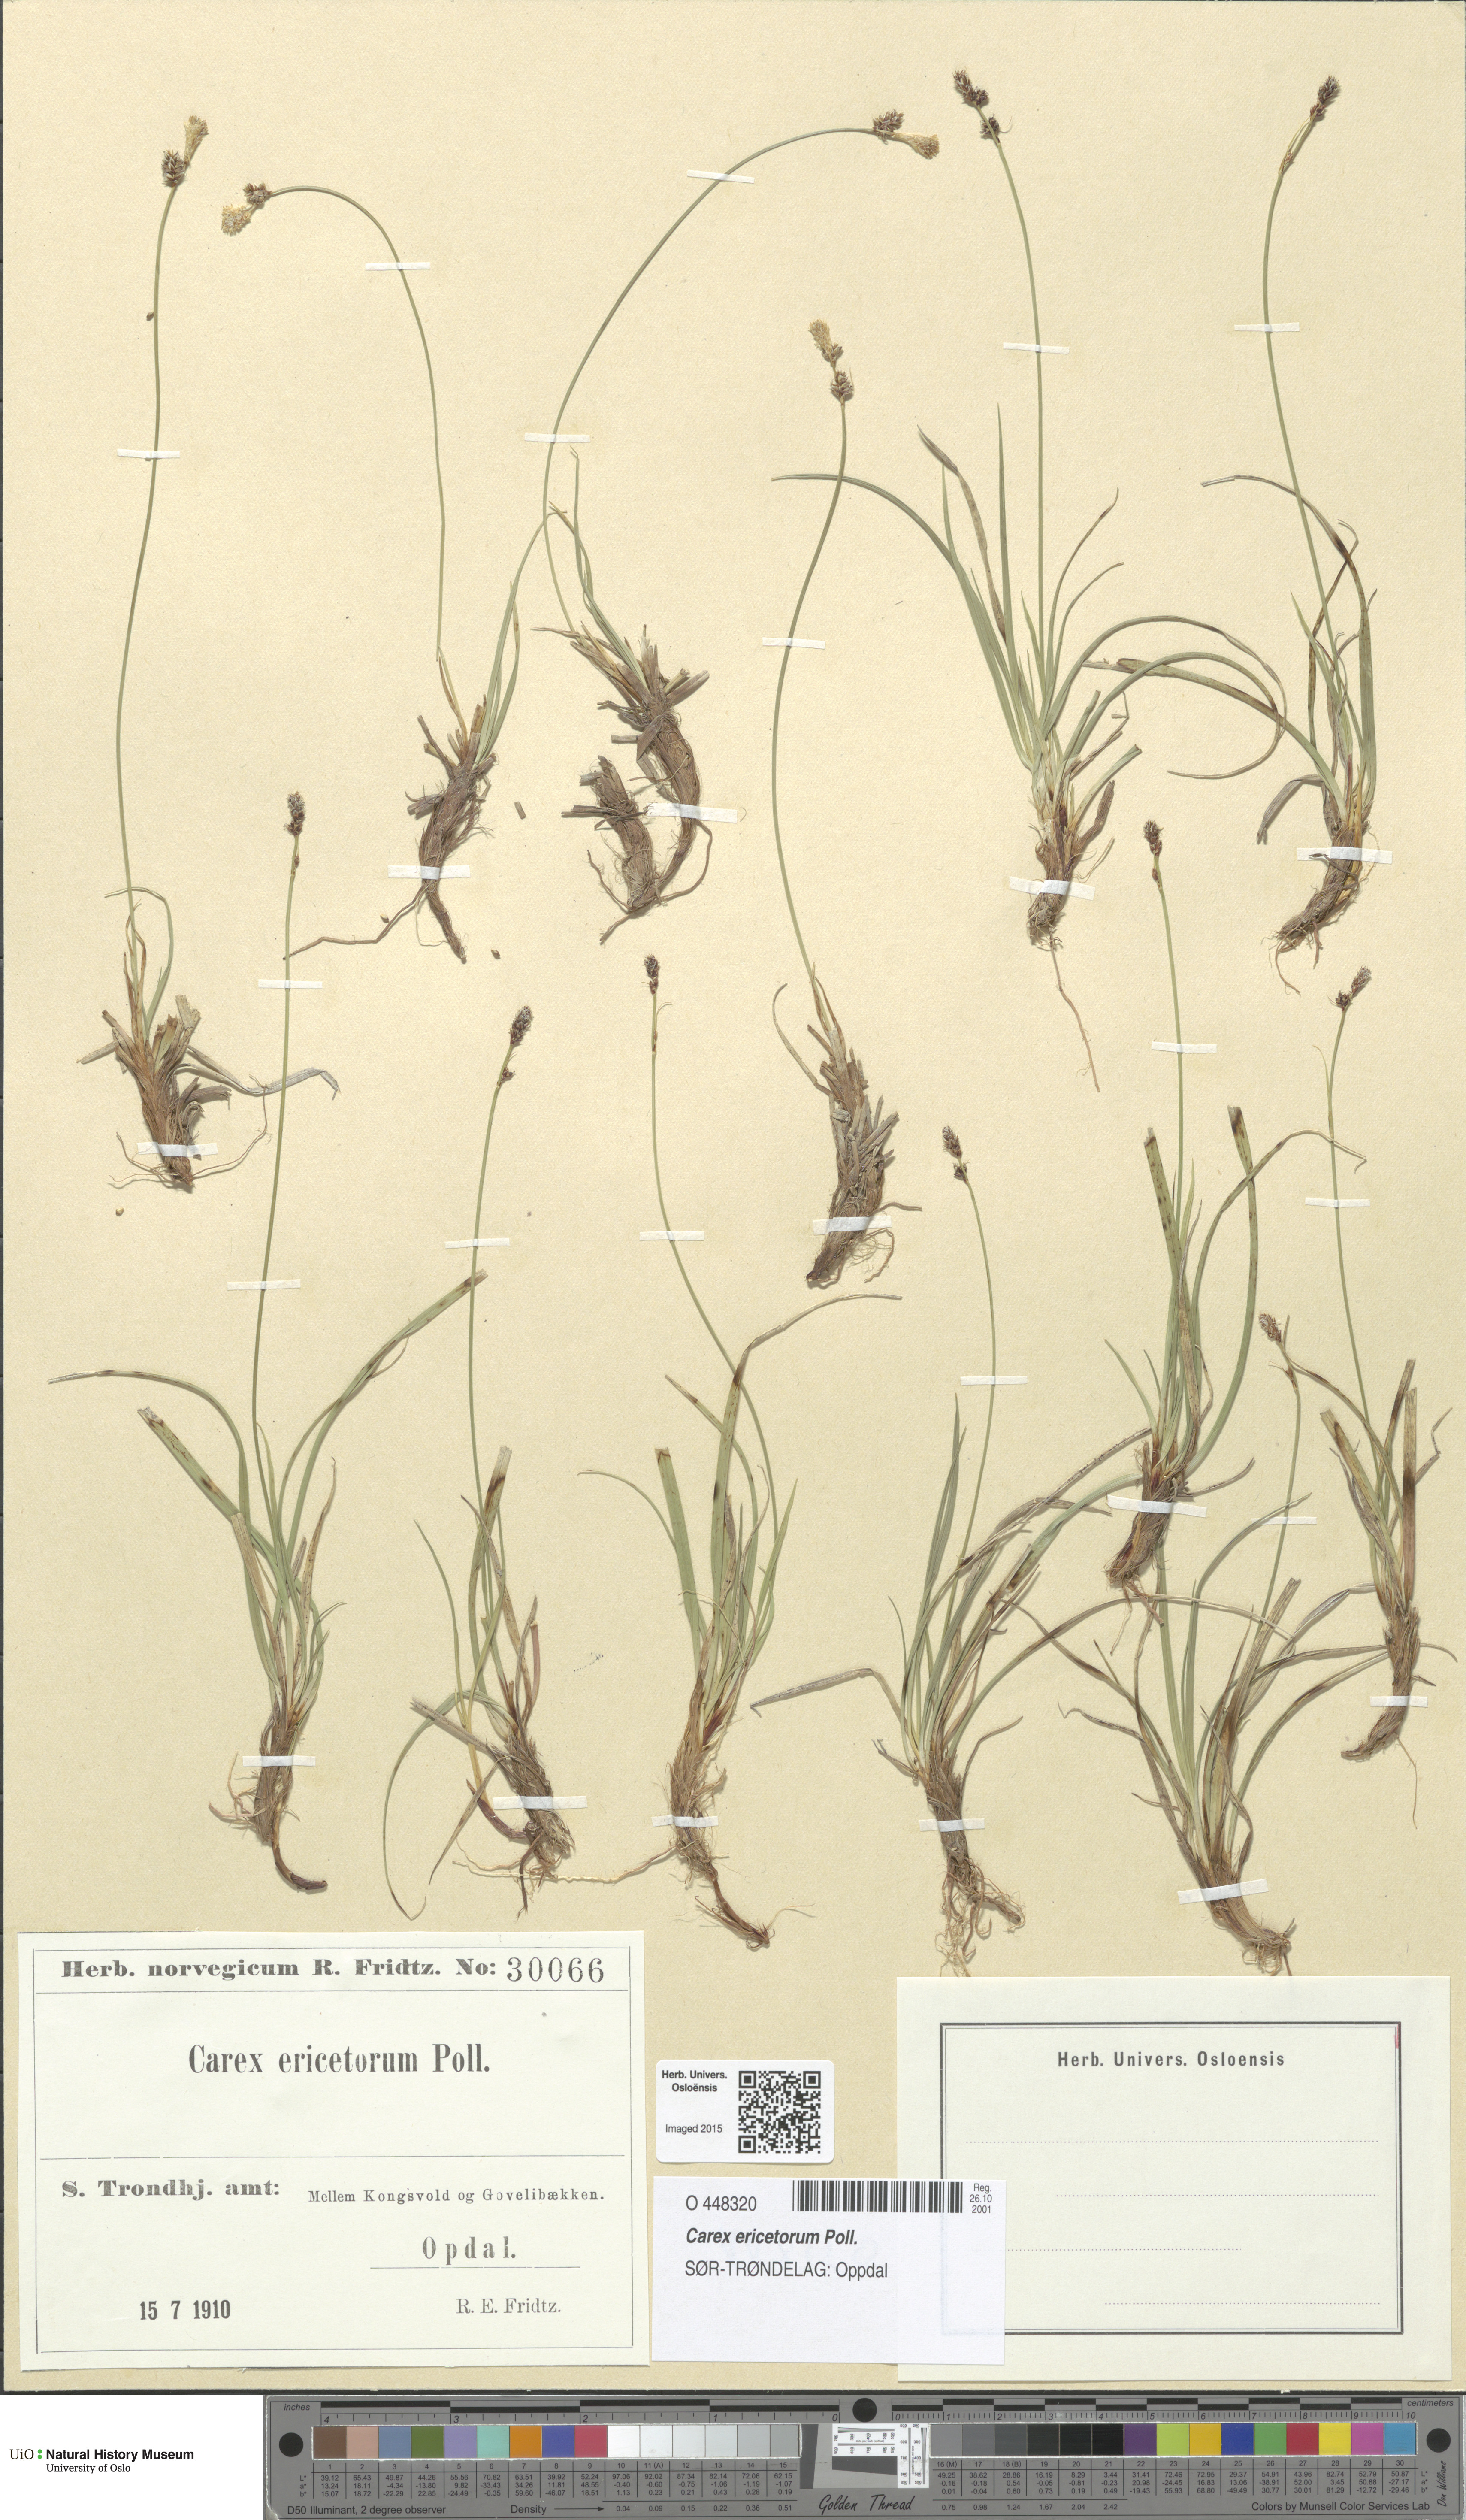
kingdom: Plantae
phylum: Tracheophyta
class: Liliopsida
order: Poales
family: Cyperaceae
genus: Carex
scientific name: Carex ericetorum
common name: Rare spring-sedge
